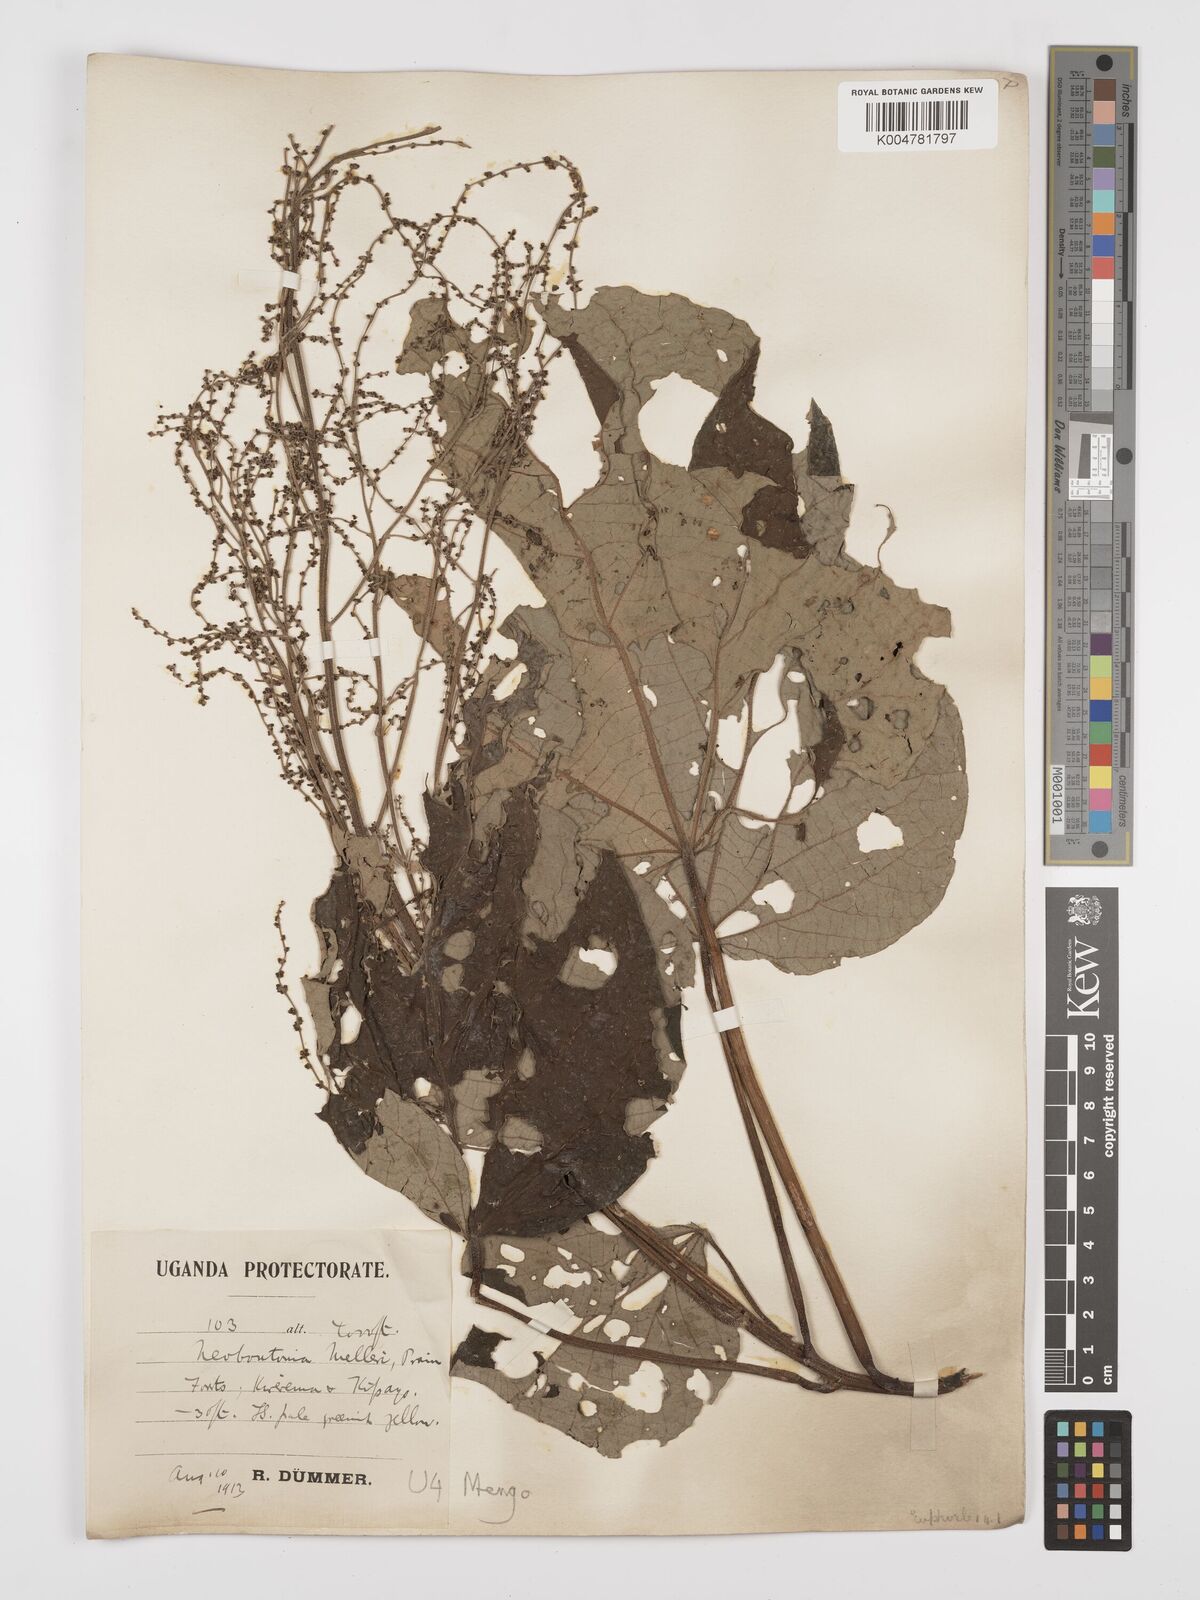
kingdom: Plantae
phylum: Tracheophyta
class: Magnoliopsida
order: Malpighiales
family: Euphorbiaceae
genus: Neoboutonia
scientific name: Neoboutonia melleri
